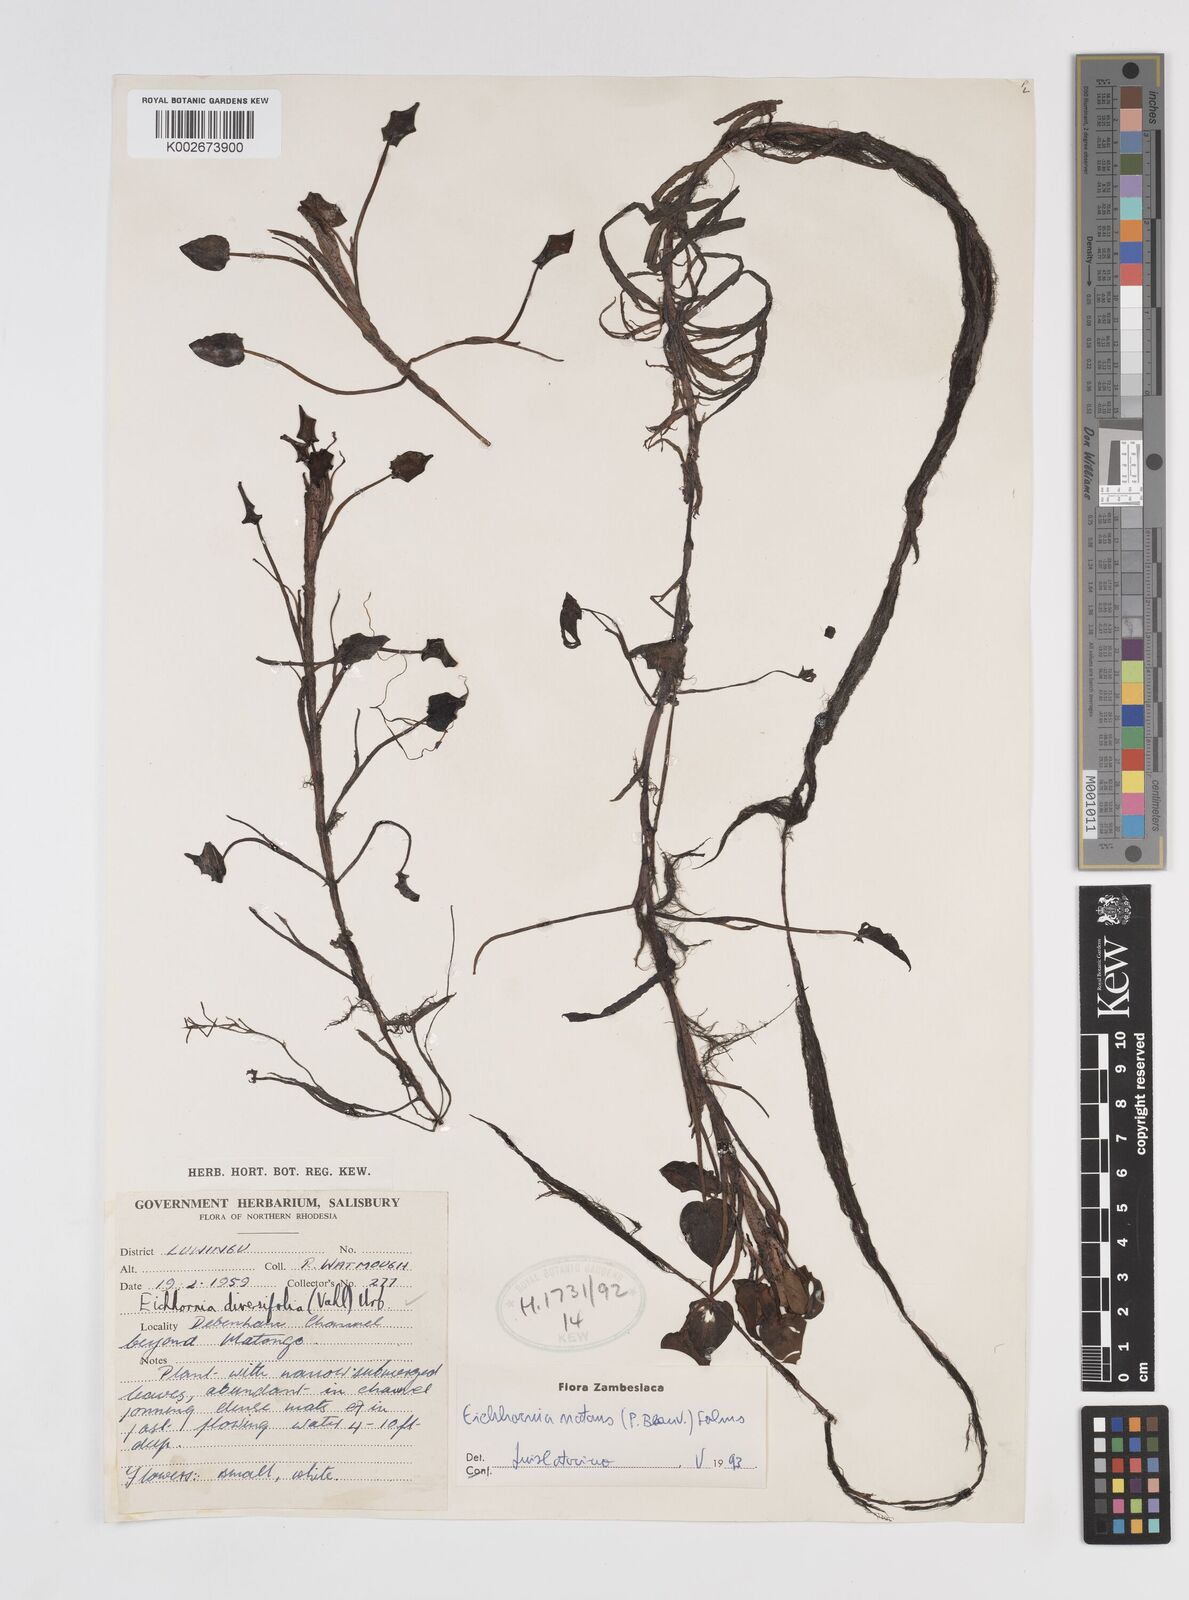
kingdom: Plantae
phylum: Tracheophyta
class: Liliopsida
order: Commelinales
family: Pontederiaceae
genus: Pontederia
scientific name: Pontederia diversifolia
